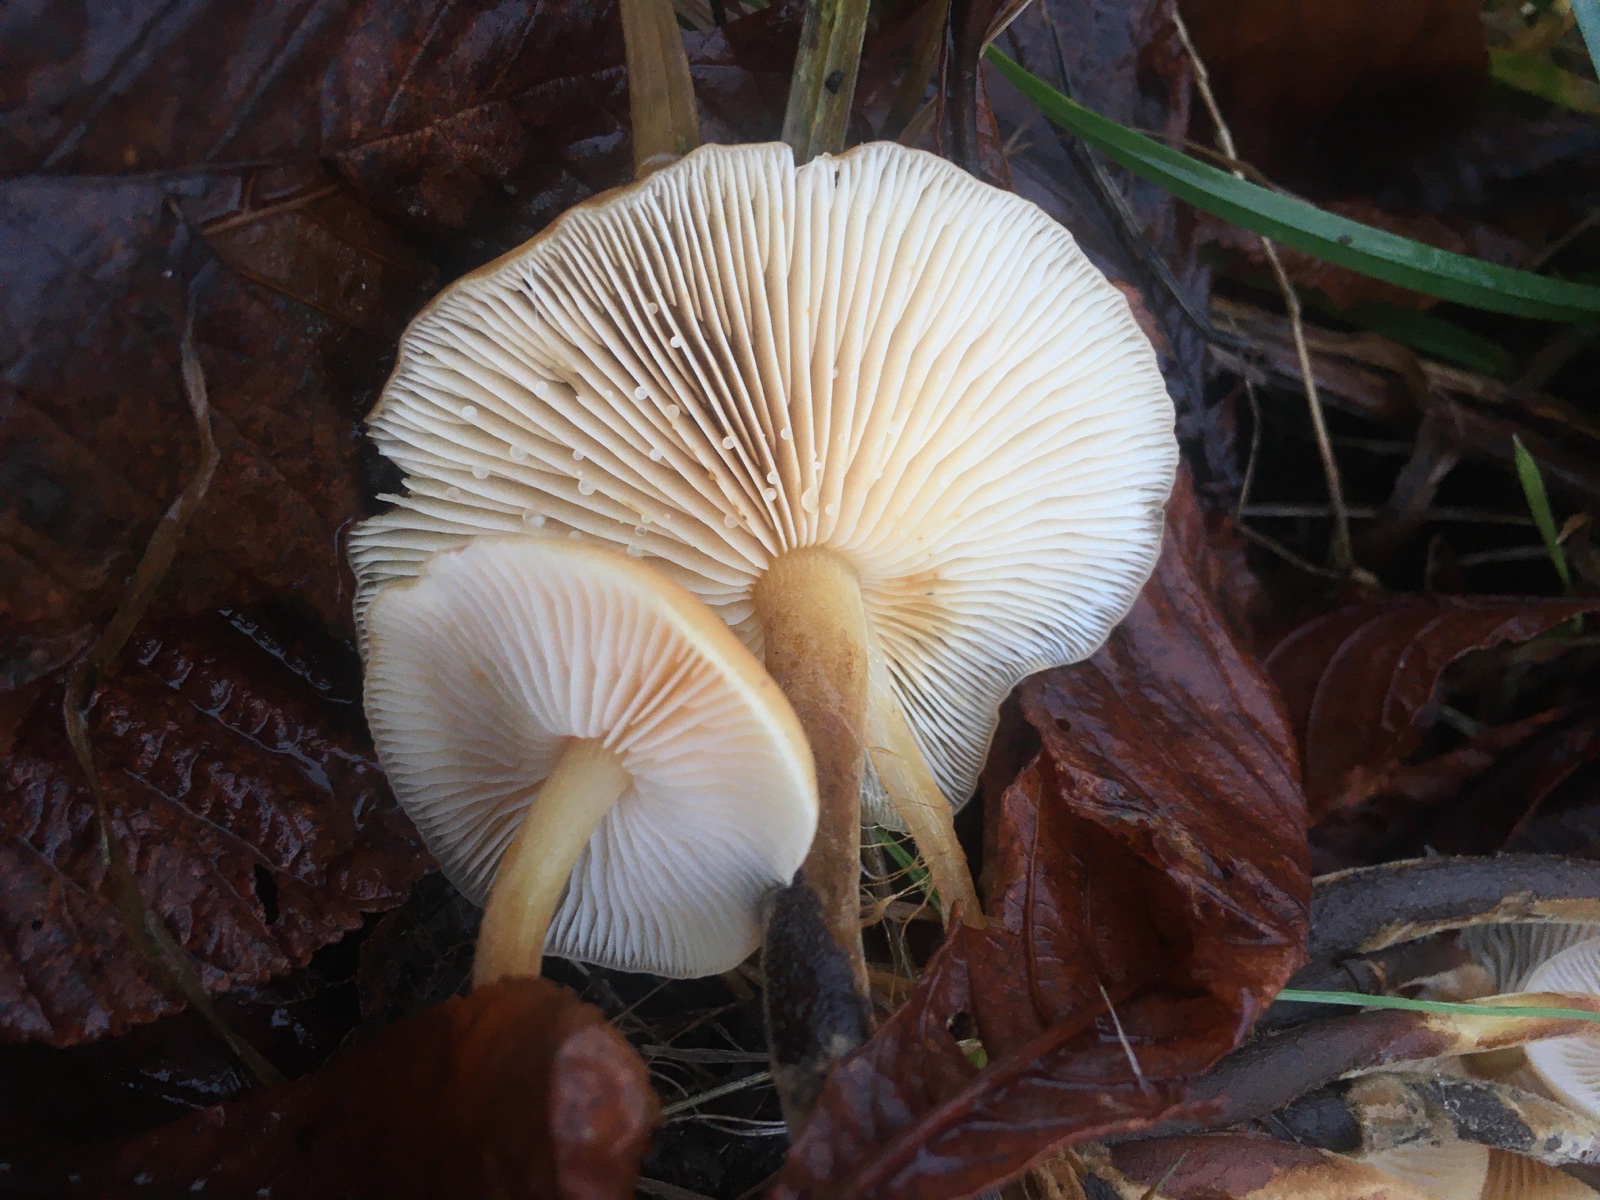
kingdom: Fungi
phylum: Basidiomycota
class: Agaricomycetes
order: Agaricales
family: Physalacriaceae
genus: Flammulina
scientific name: Flammulina velutipes
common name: gul fløjlsfod
